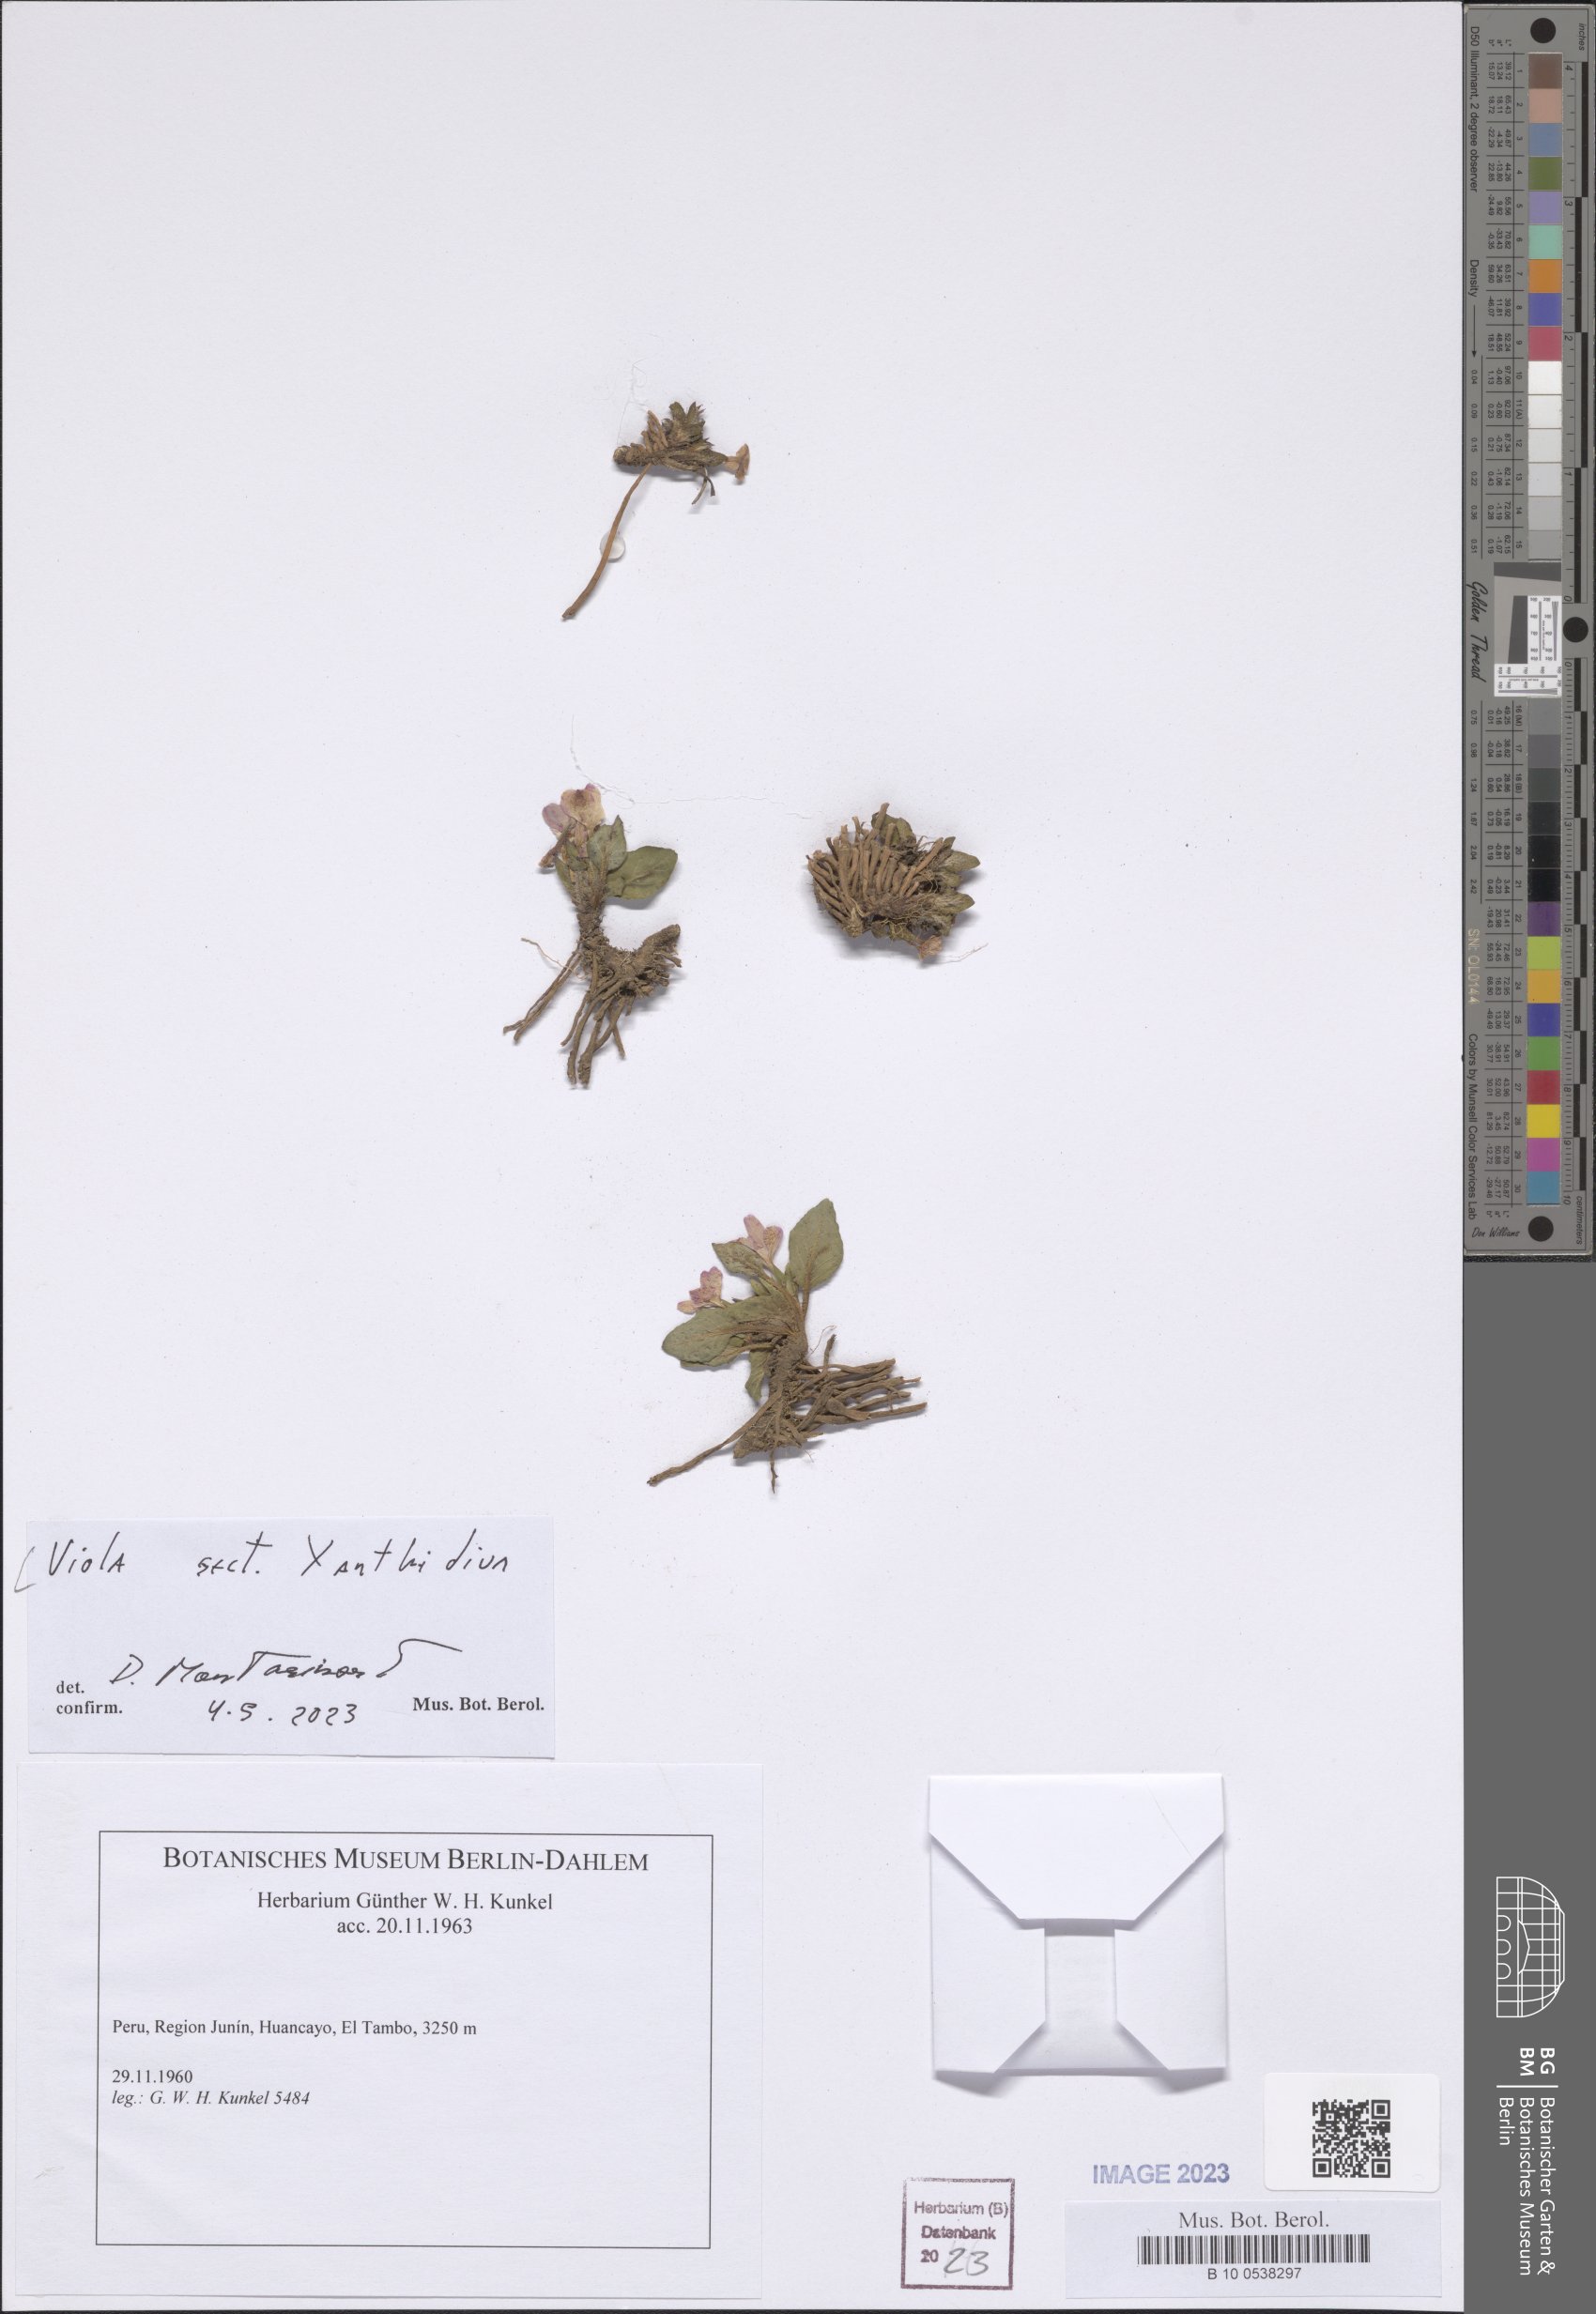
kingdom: Plantae
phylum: Tracheophyta
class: Magnoliopsida
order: Malpighiales
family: Violaceae
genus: Viola
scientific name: Viola
